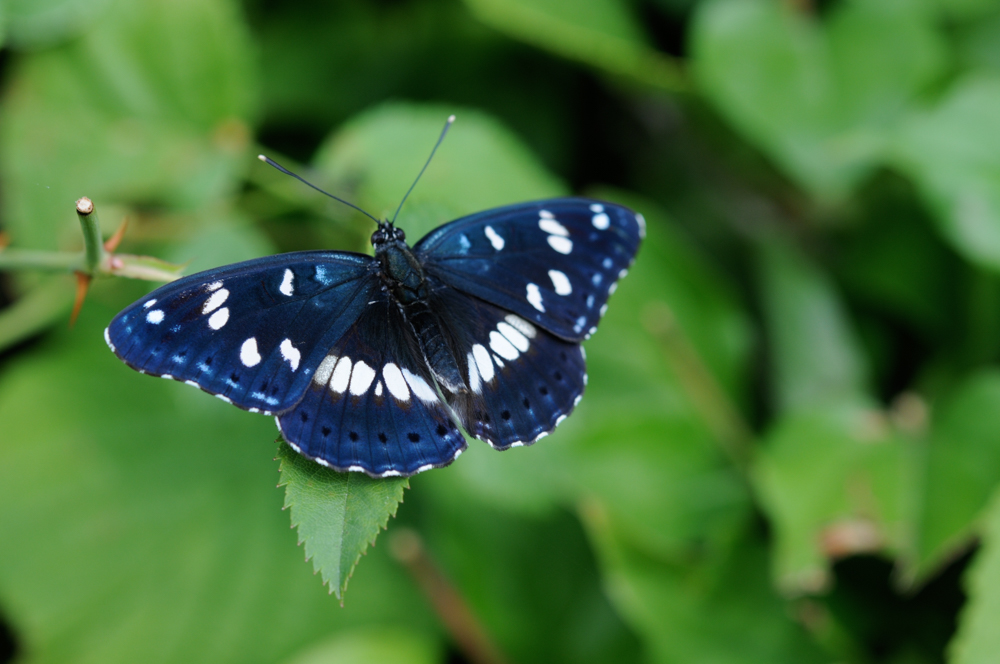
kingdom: Animalia
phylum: Arthropoda
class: Insecta
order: Lepidoptera
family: Nymphalidae
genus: Limenitis
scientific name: Limenitis reducta
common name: Southern white admiral
